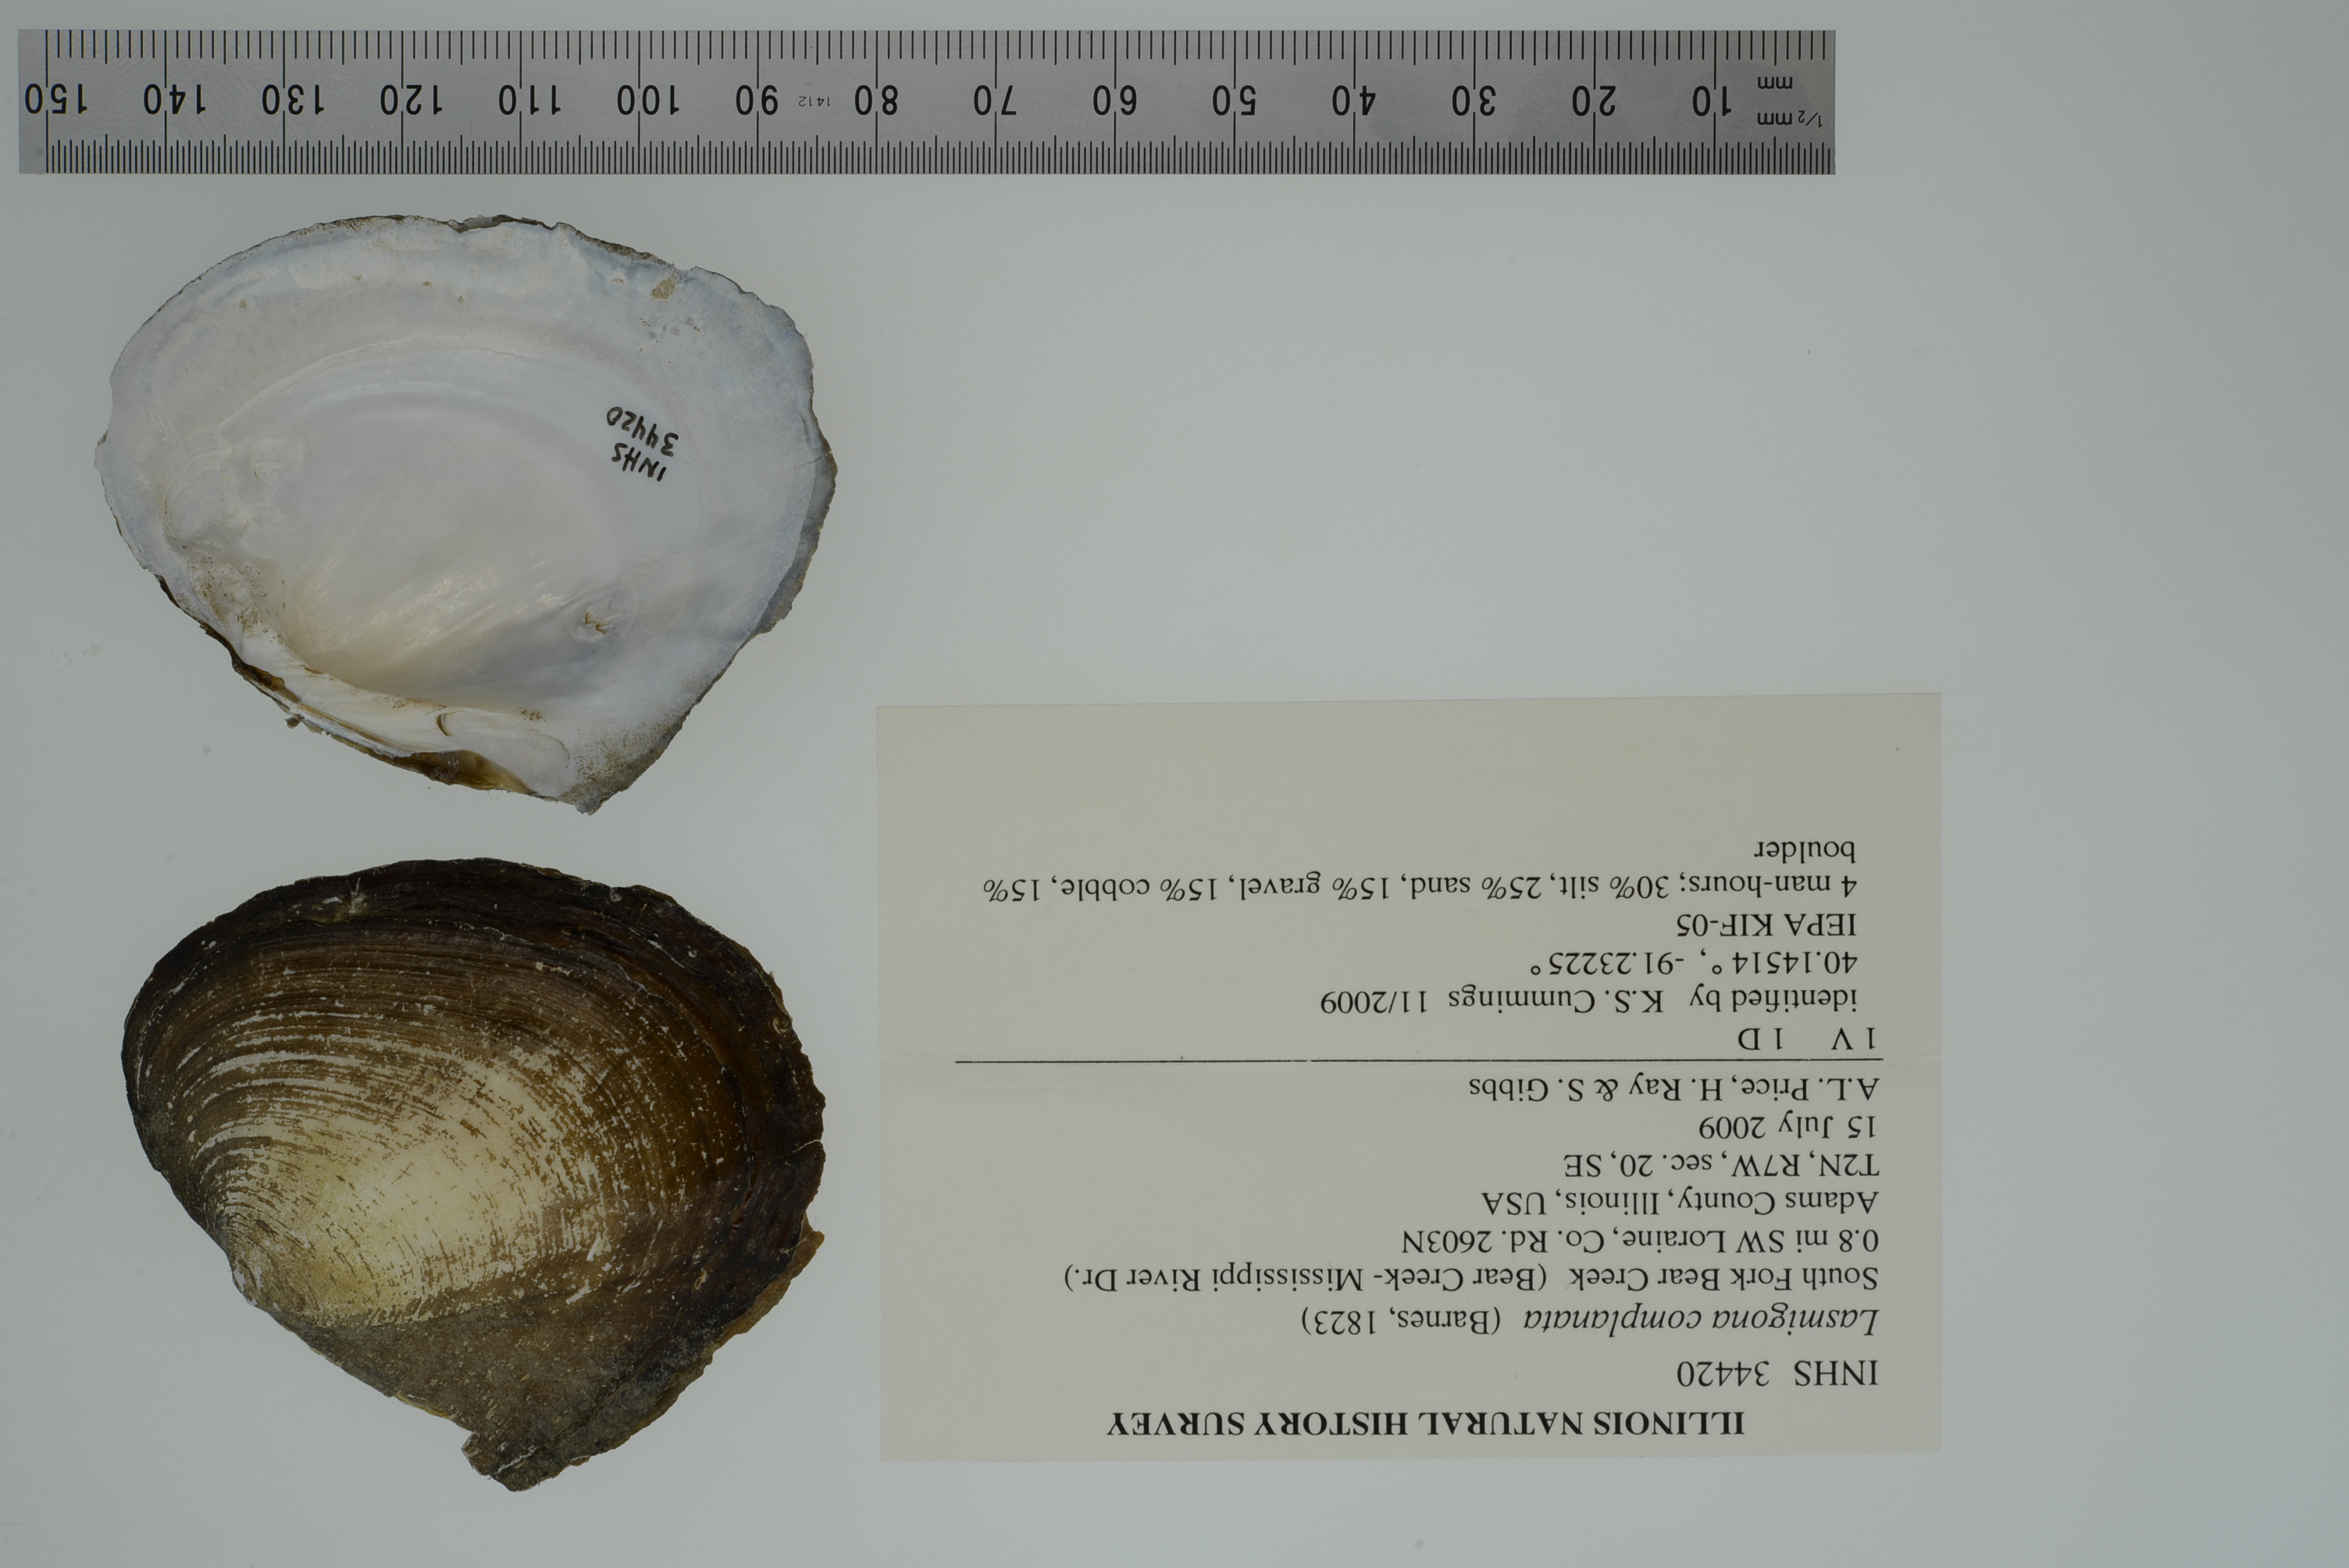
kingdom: Animalia
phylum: Mollusca
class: Bivalvia
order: Unionida
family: Unionidae
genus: Lasmigona
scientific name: Lasmigona complanata
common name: White heelsplitter
